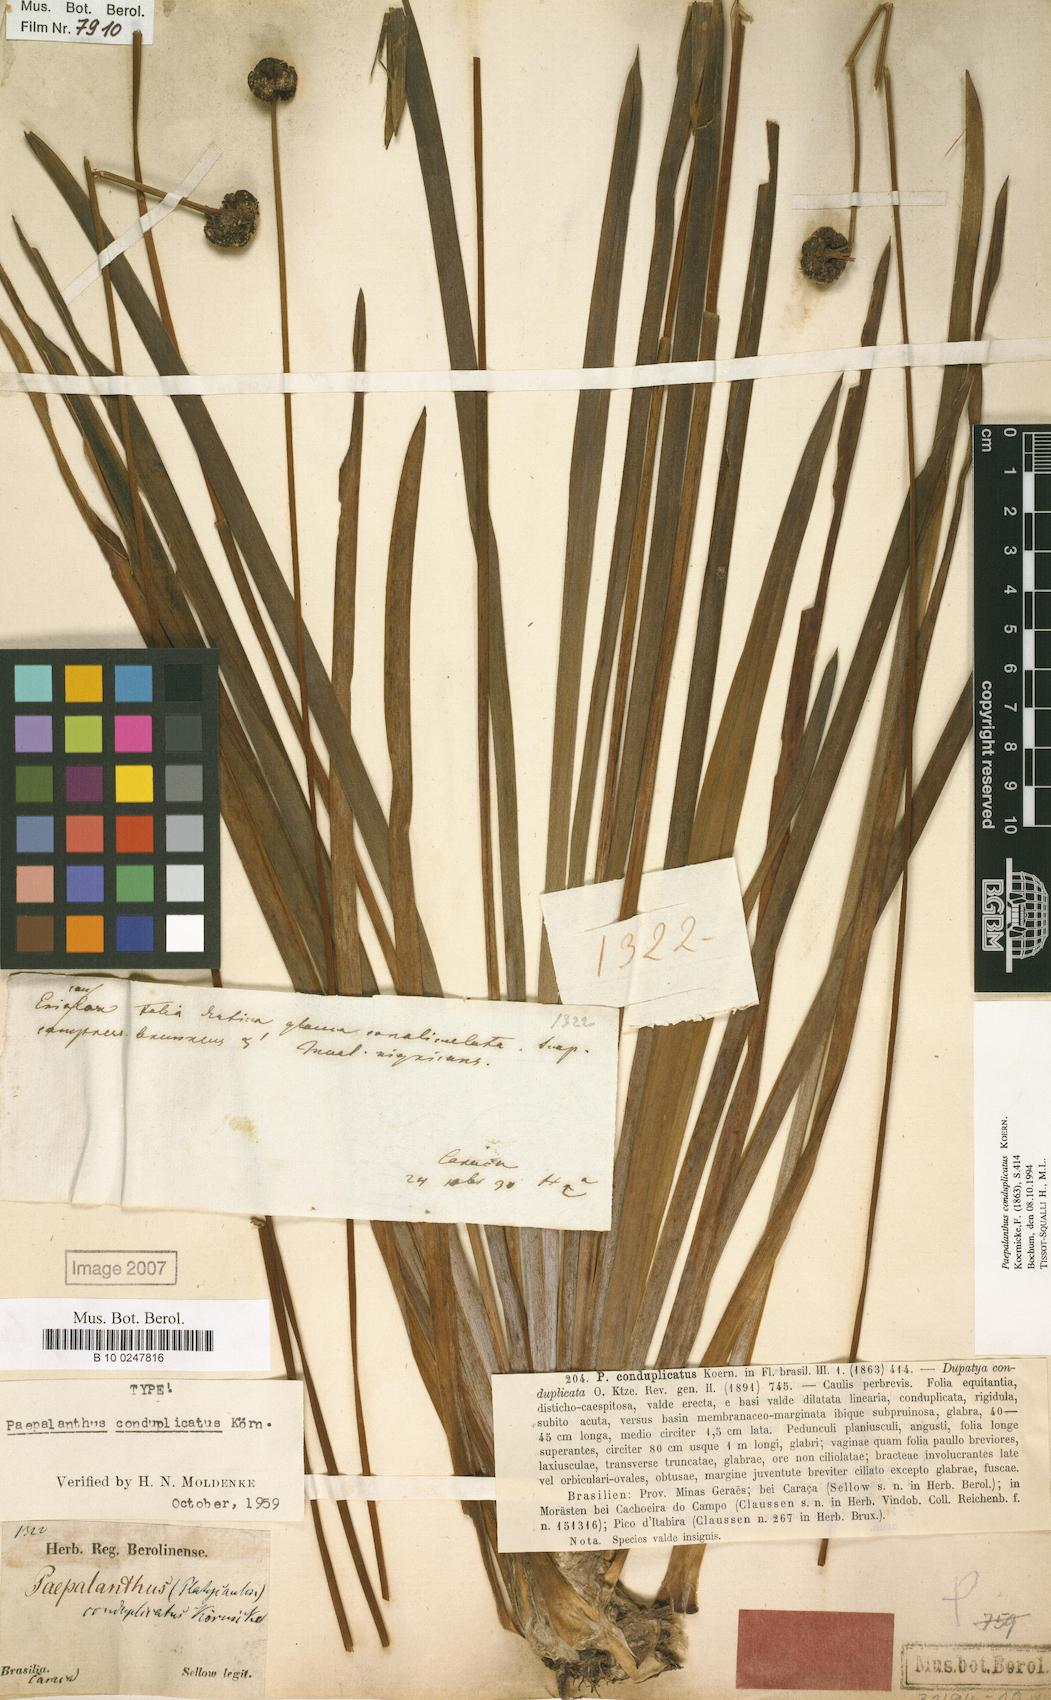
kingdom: Plantae
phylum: Tracheophyta
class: Liliopsida
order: Poales
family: Eriocaulaceae
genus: Paepalanthus
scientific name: Paepalanthus conduplicatus
